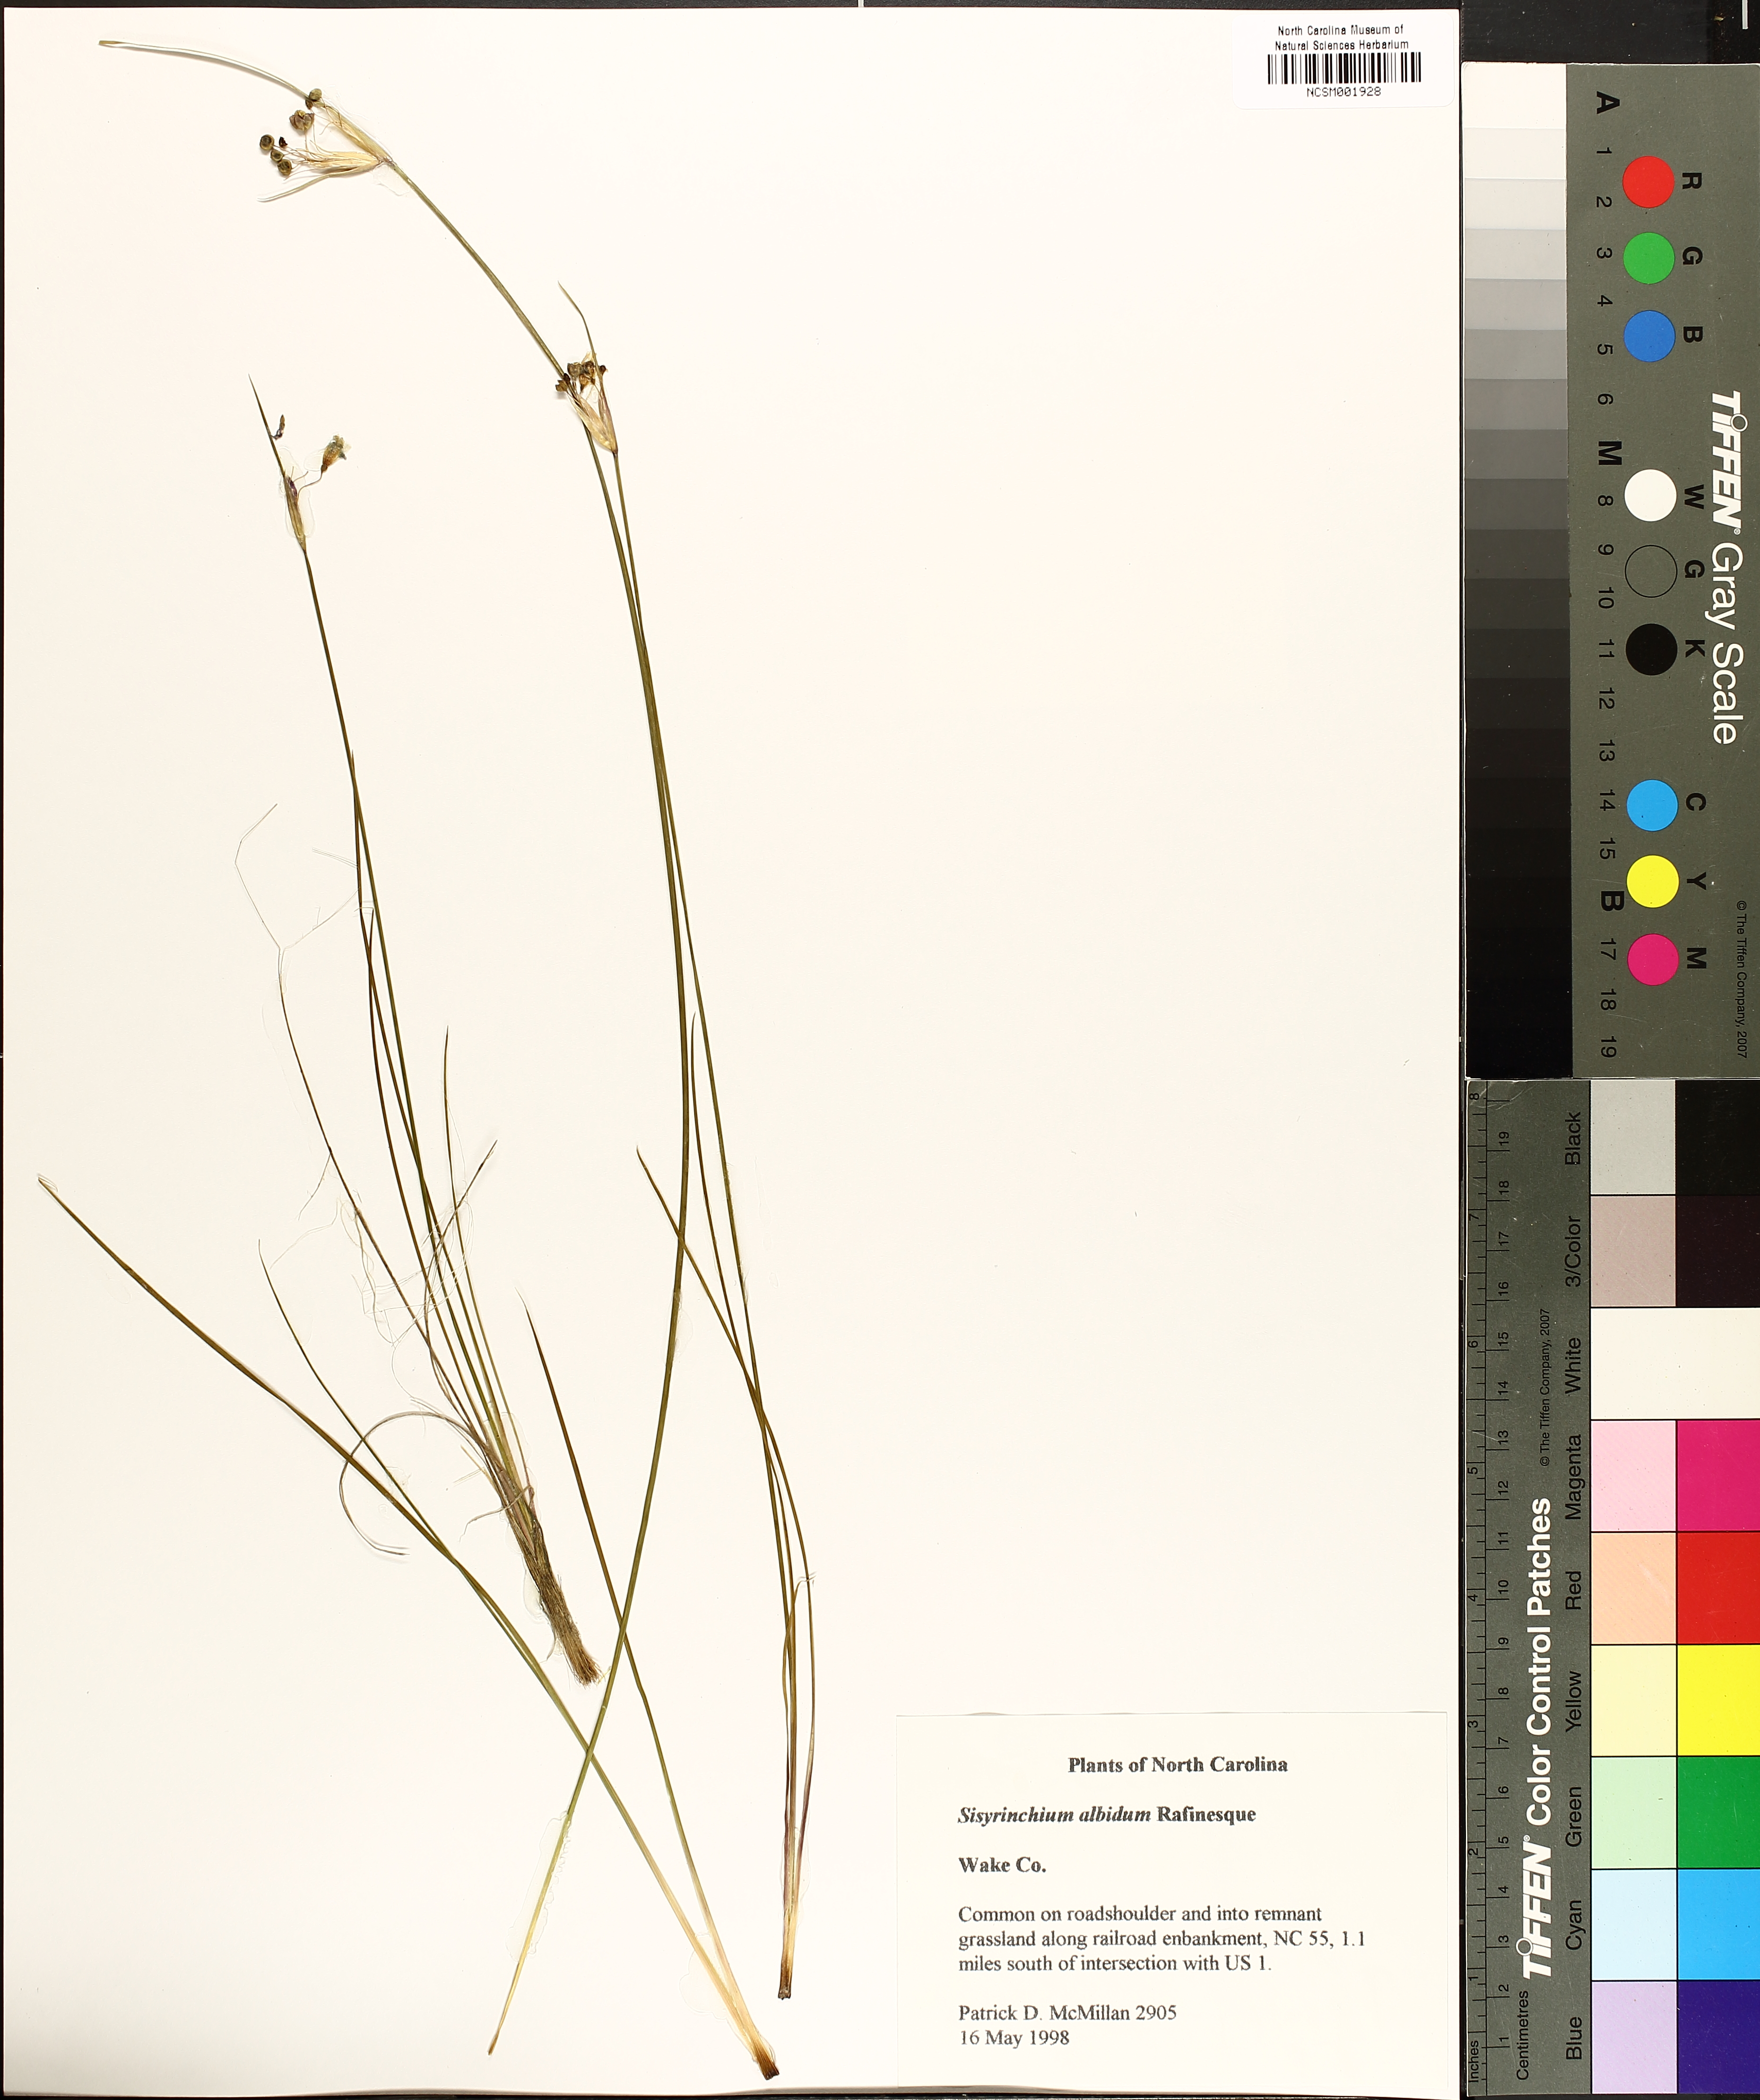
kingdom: Plantae
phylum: Tracheophyta
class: Liliopsida
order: Asparagales
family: Iridaceae
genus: Sisyrinchium
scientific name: Sisyrinchium albidum
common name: Pale blue-eyed-grass
